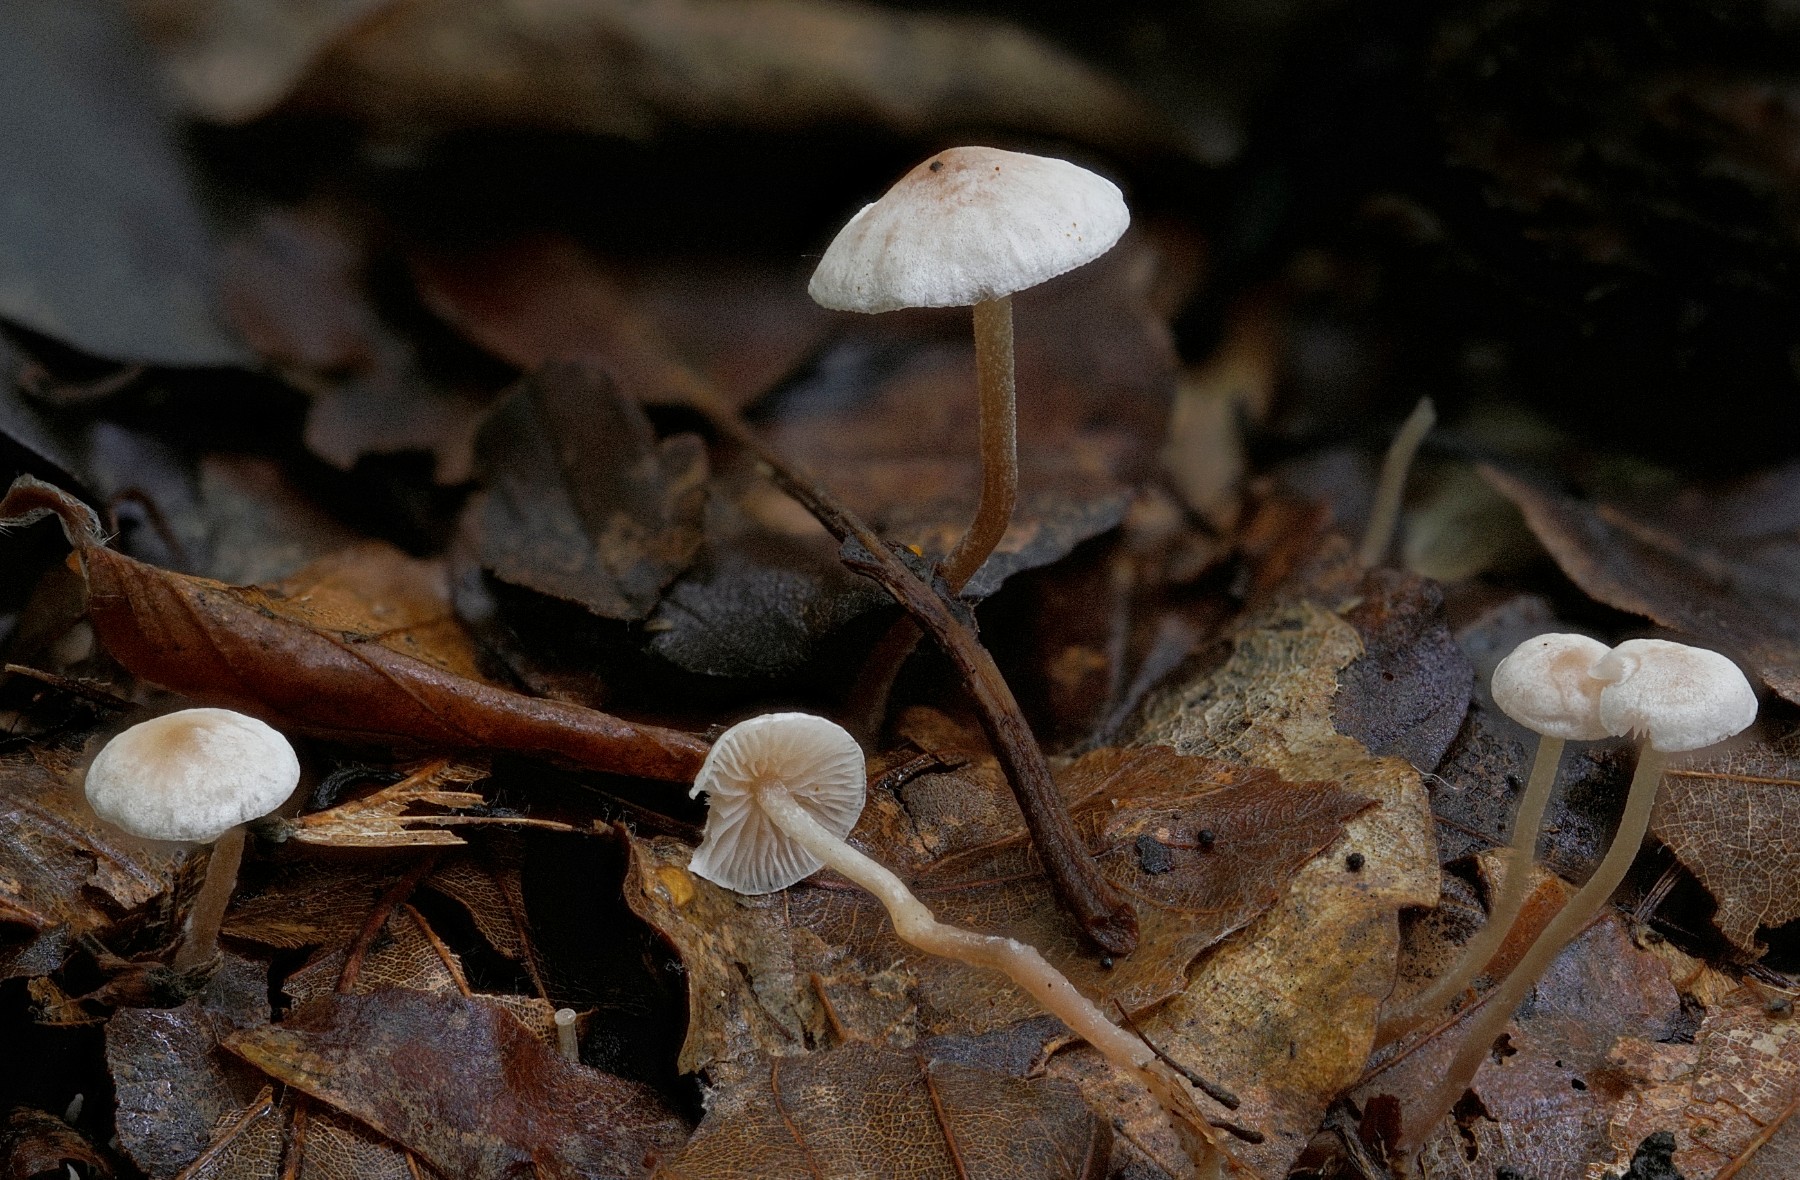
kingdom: Fungi
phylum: Basidiomycota
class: Agaricomycetes
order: Agaricales
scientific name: Agaricales
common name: champignonordenen
